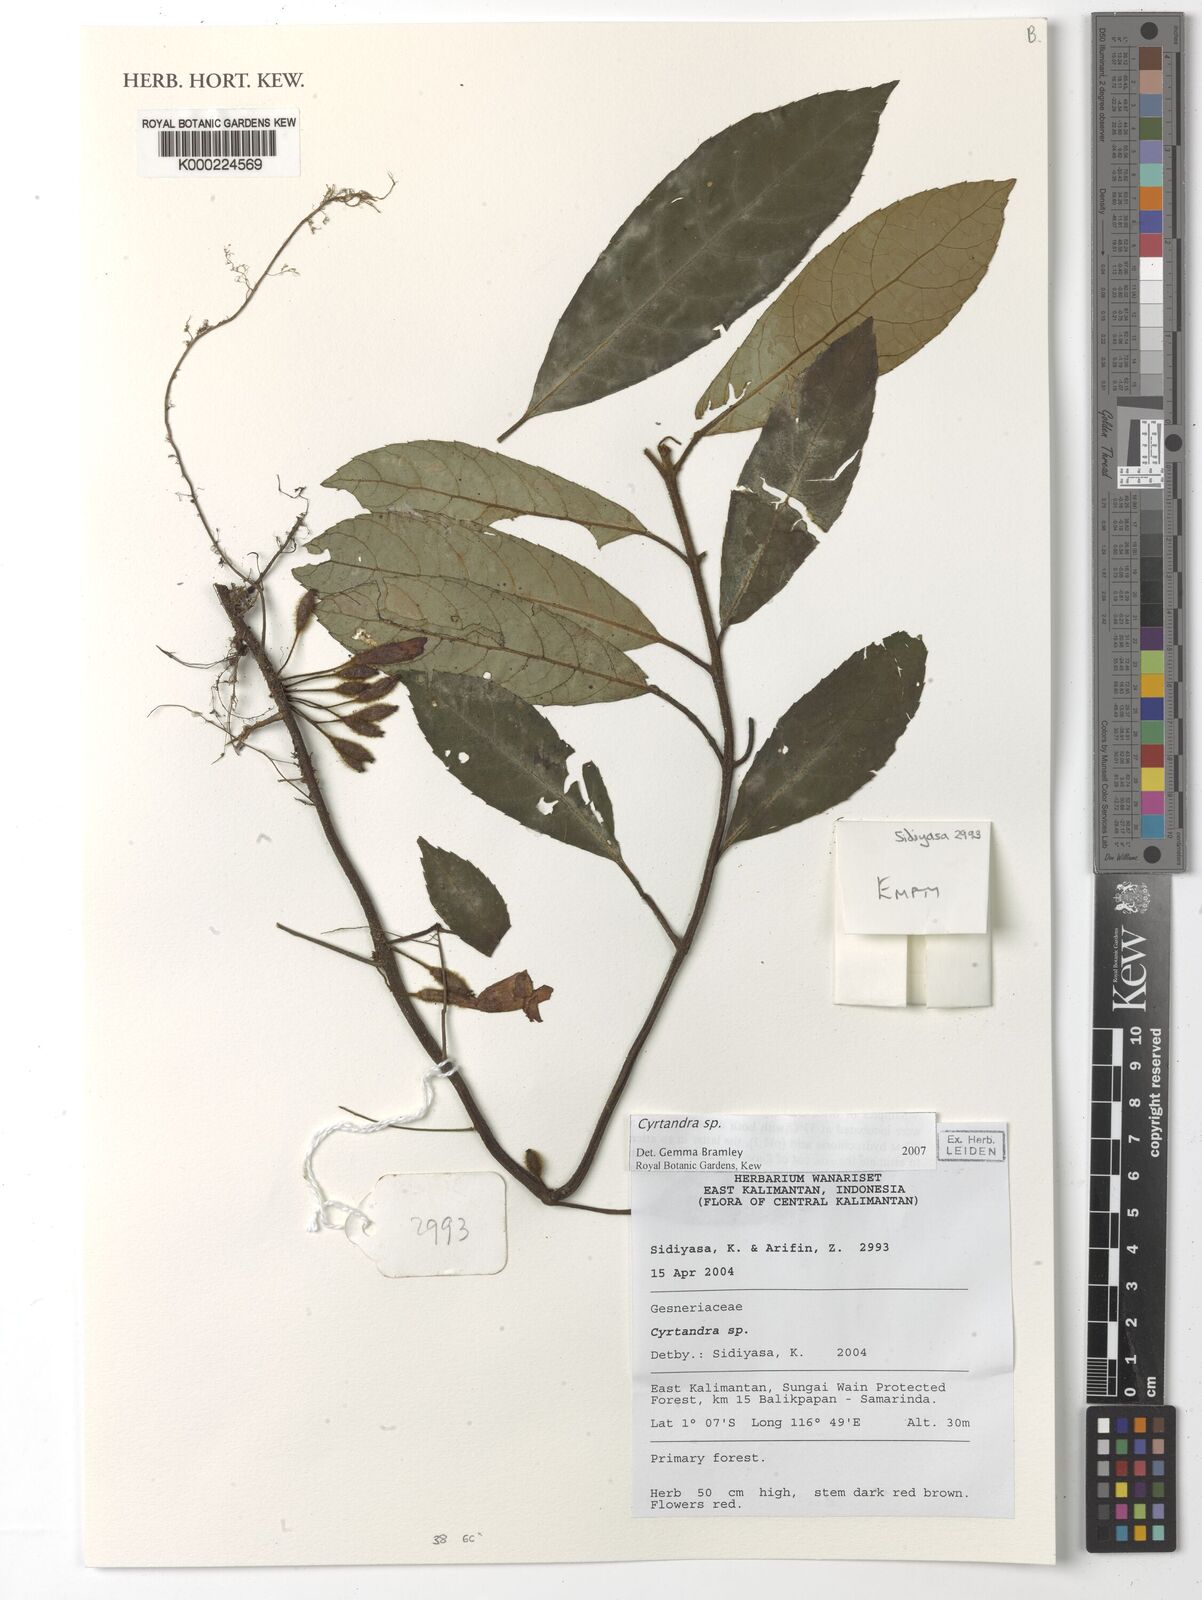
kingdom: Plantae
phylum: Tracheophyta
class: Magnoliopsida
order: Lamiales
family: Gesneriaceae
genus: Cyrtandra
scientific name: Cyrtandra
